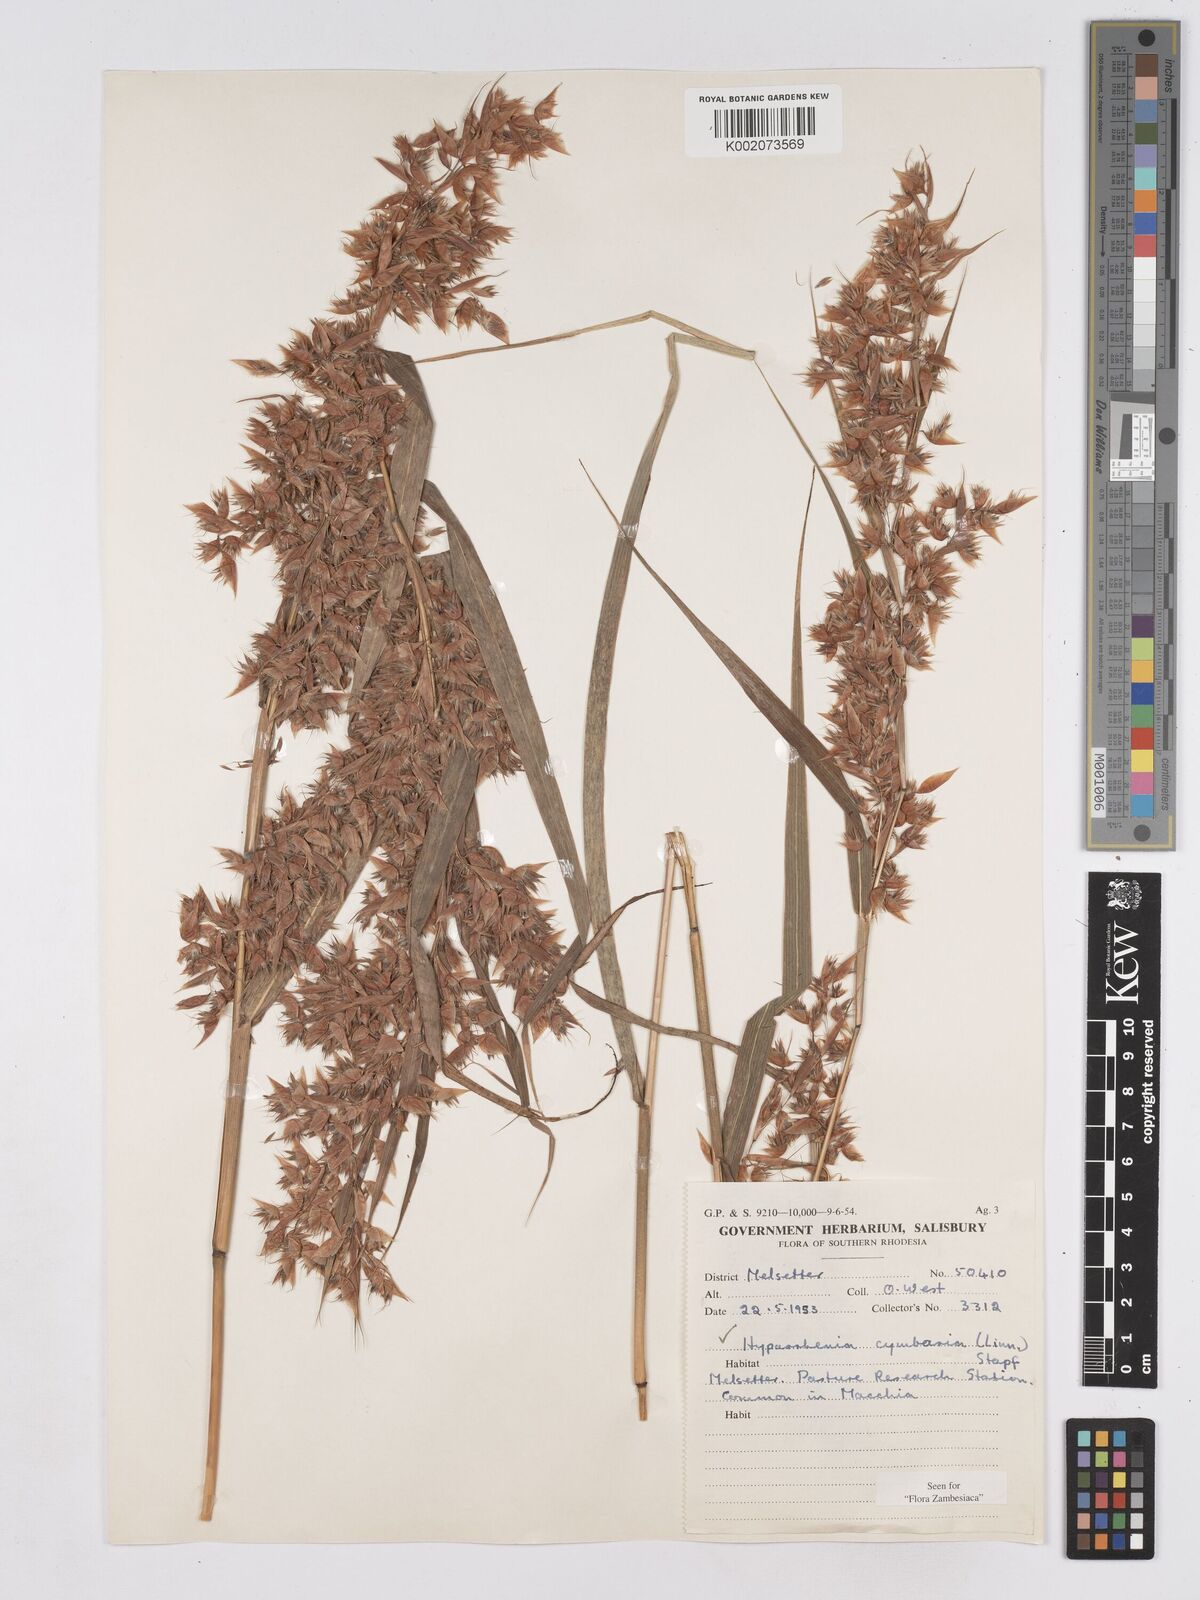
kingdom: Plantae
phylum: Tracheophyta
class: Liliopsida
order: Poales
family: Poaceae
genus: Hyparrhenia
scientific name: Hyparrhenia cymbaria
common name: Boat thatching grass
